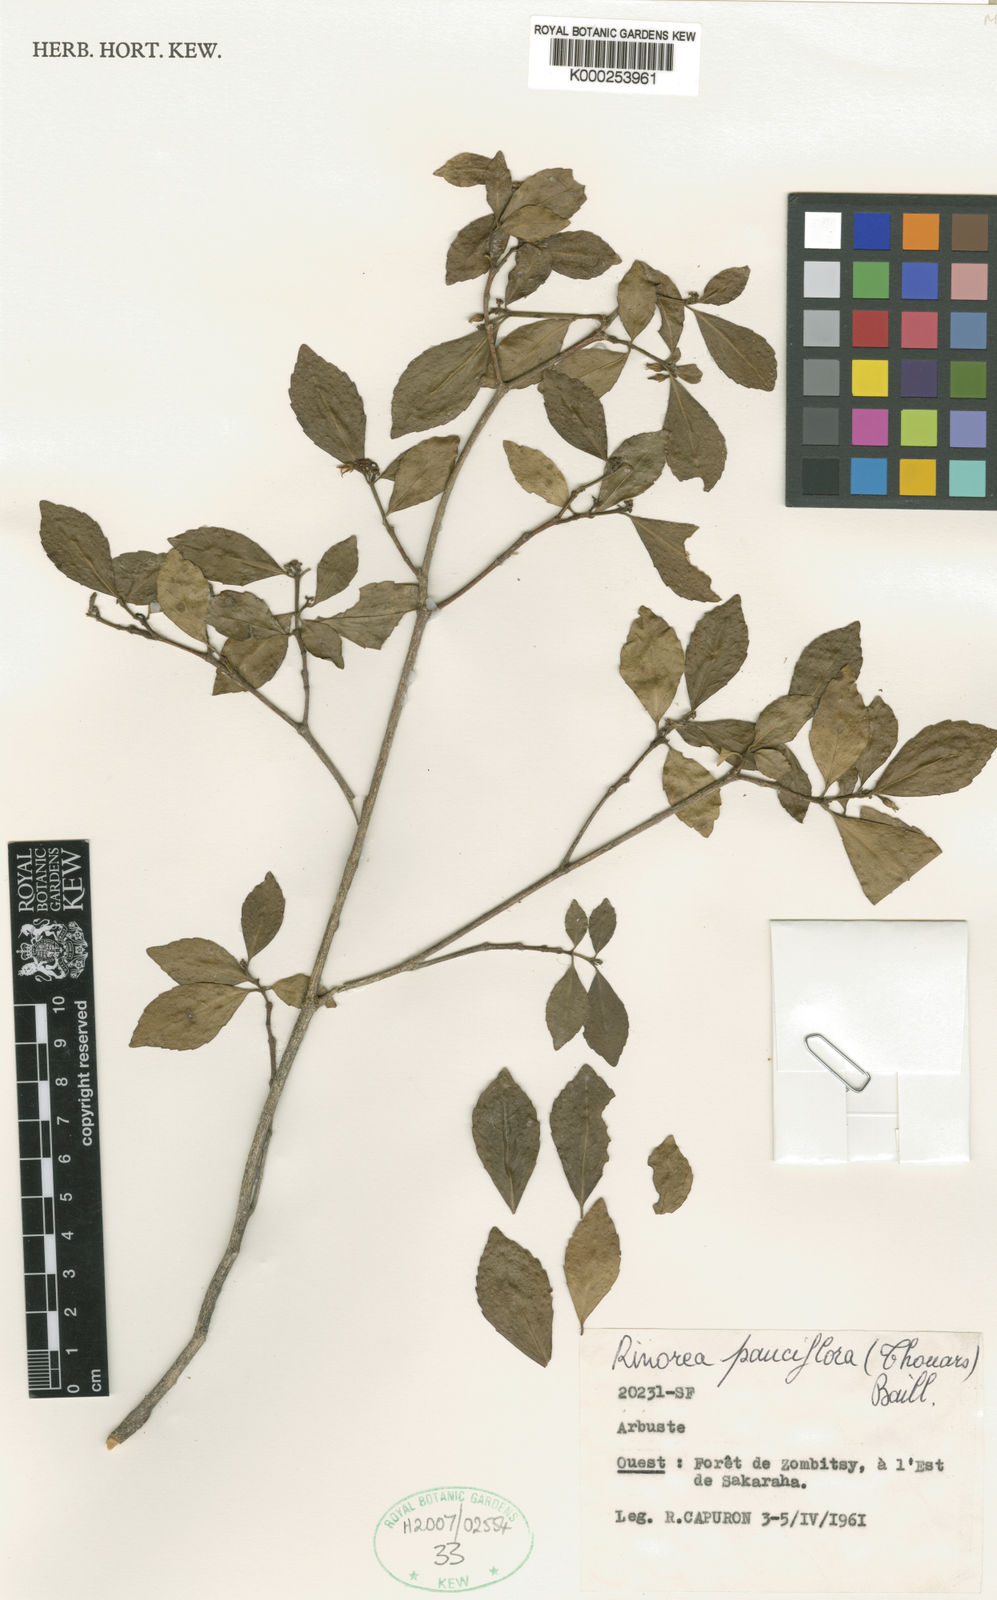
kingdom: Plantae
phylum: Tracheophyta
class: Magnoliopsida
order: Malpighiales
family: Violaceae
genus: Rinorea
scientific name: Rinorea pauciflora
